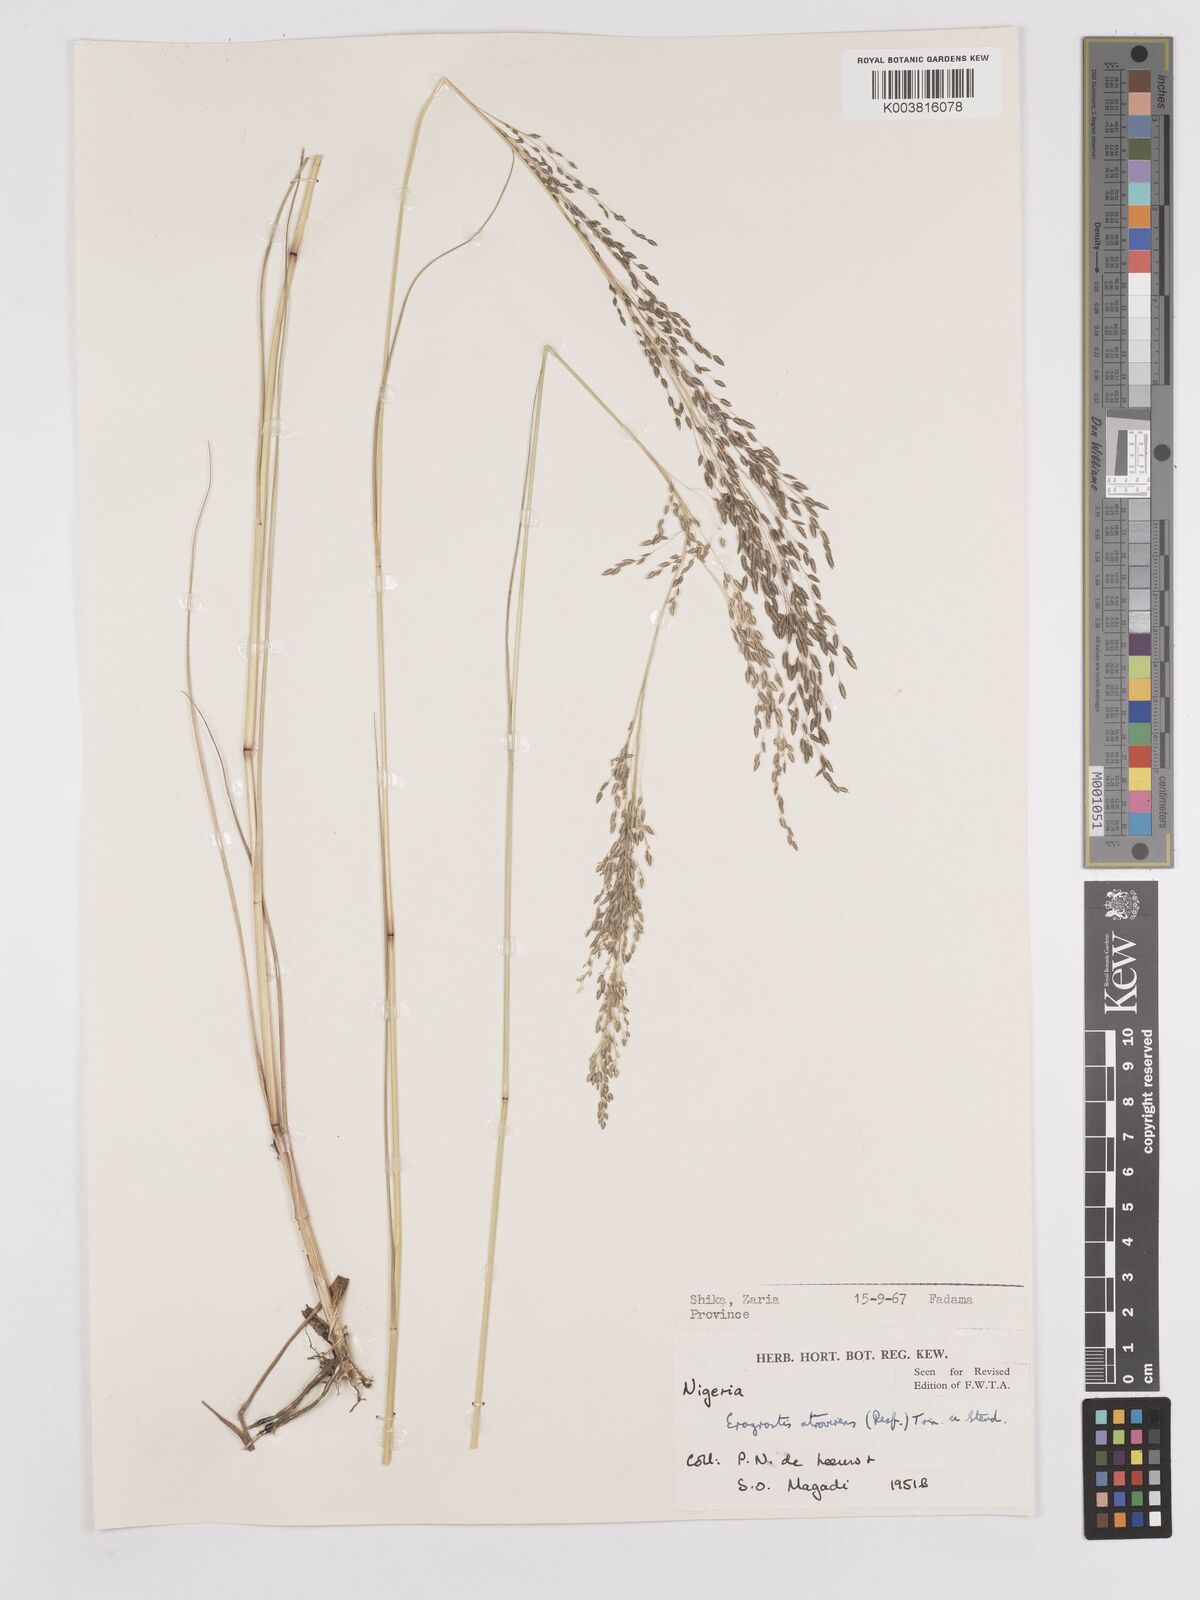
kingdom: Plantae
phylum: Tracheophyta
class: Liliopsida
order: Poales
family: Poaceae
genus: Eragrostis
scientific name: Eragrostis atrovirens
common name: Thalia lovegrass
